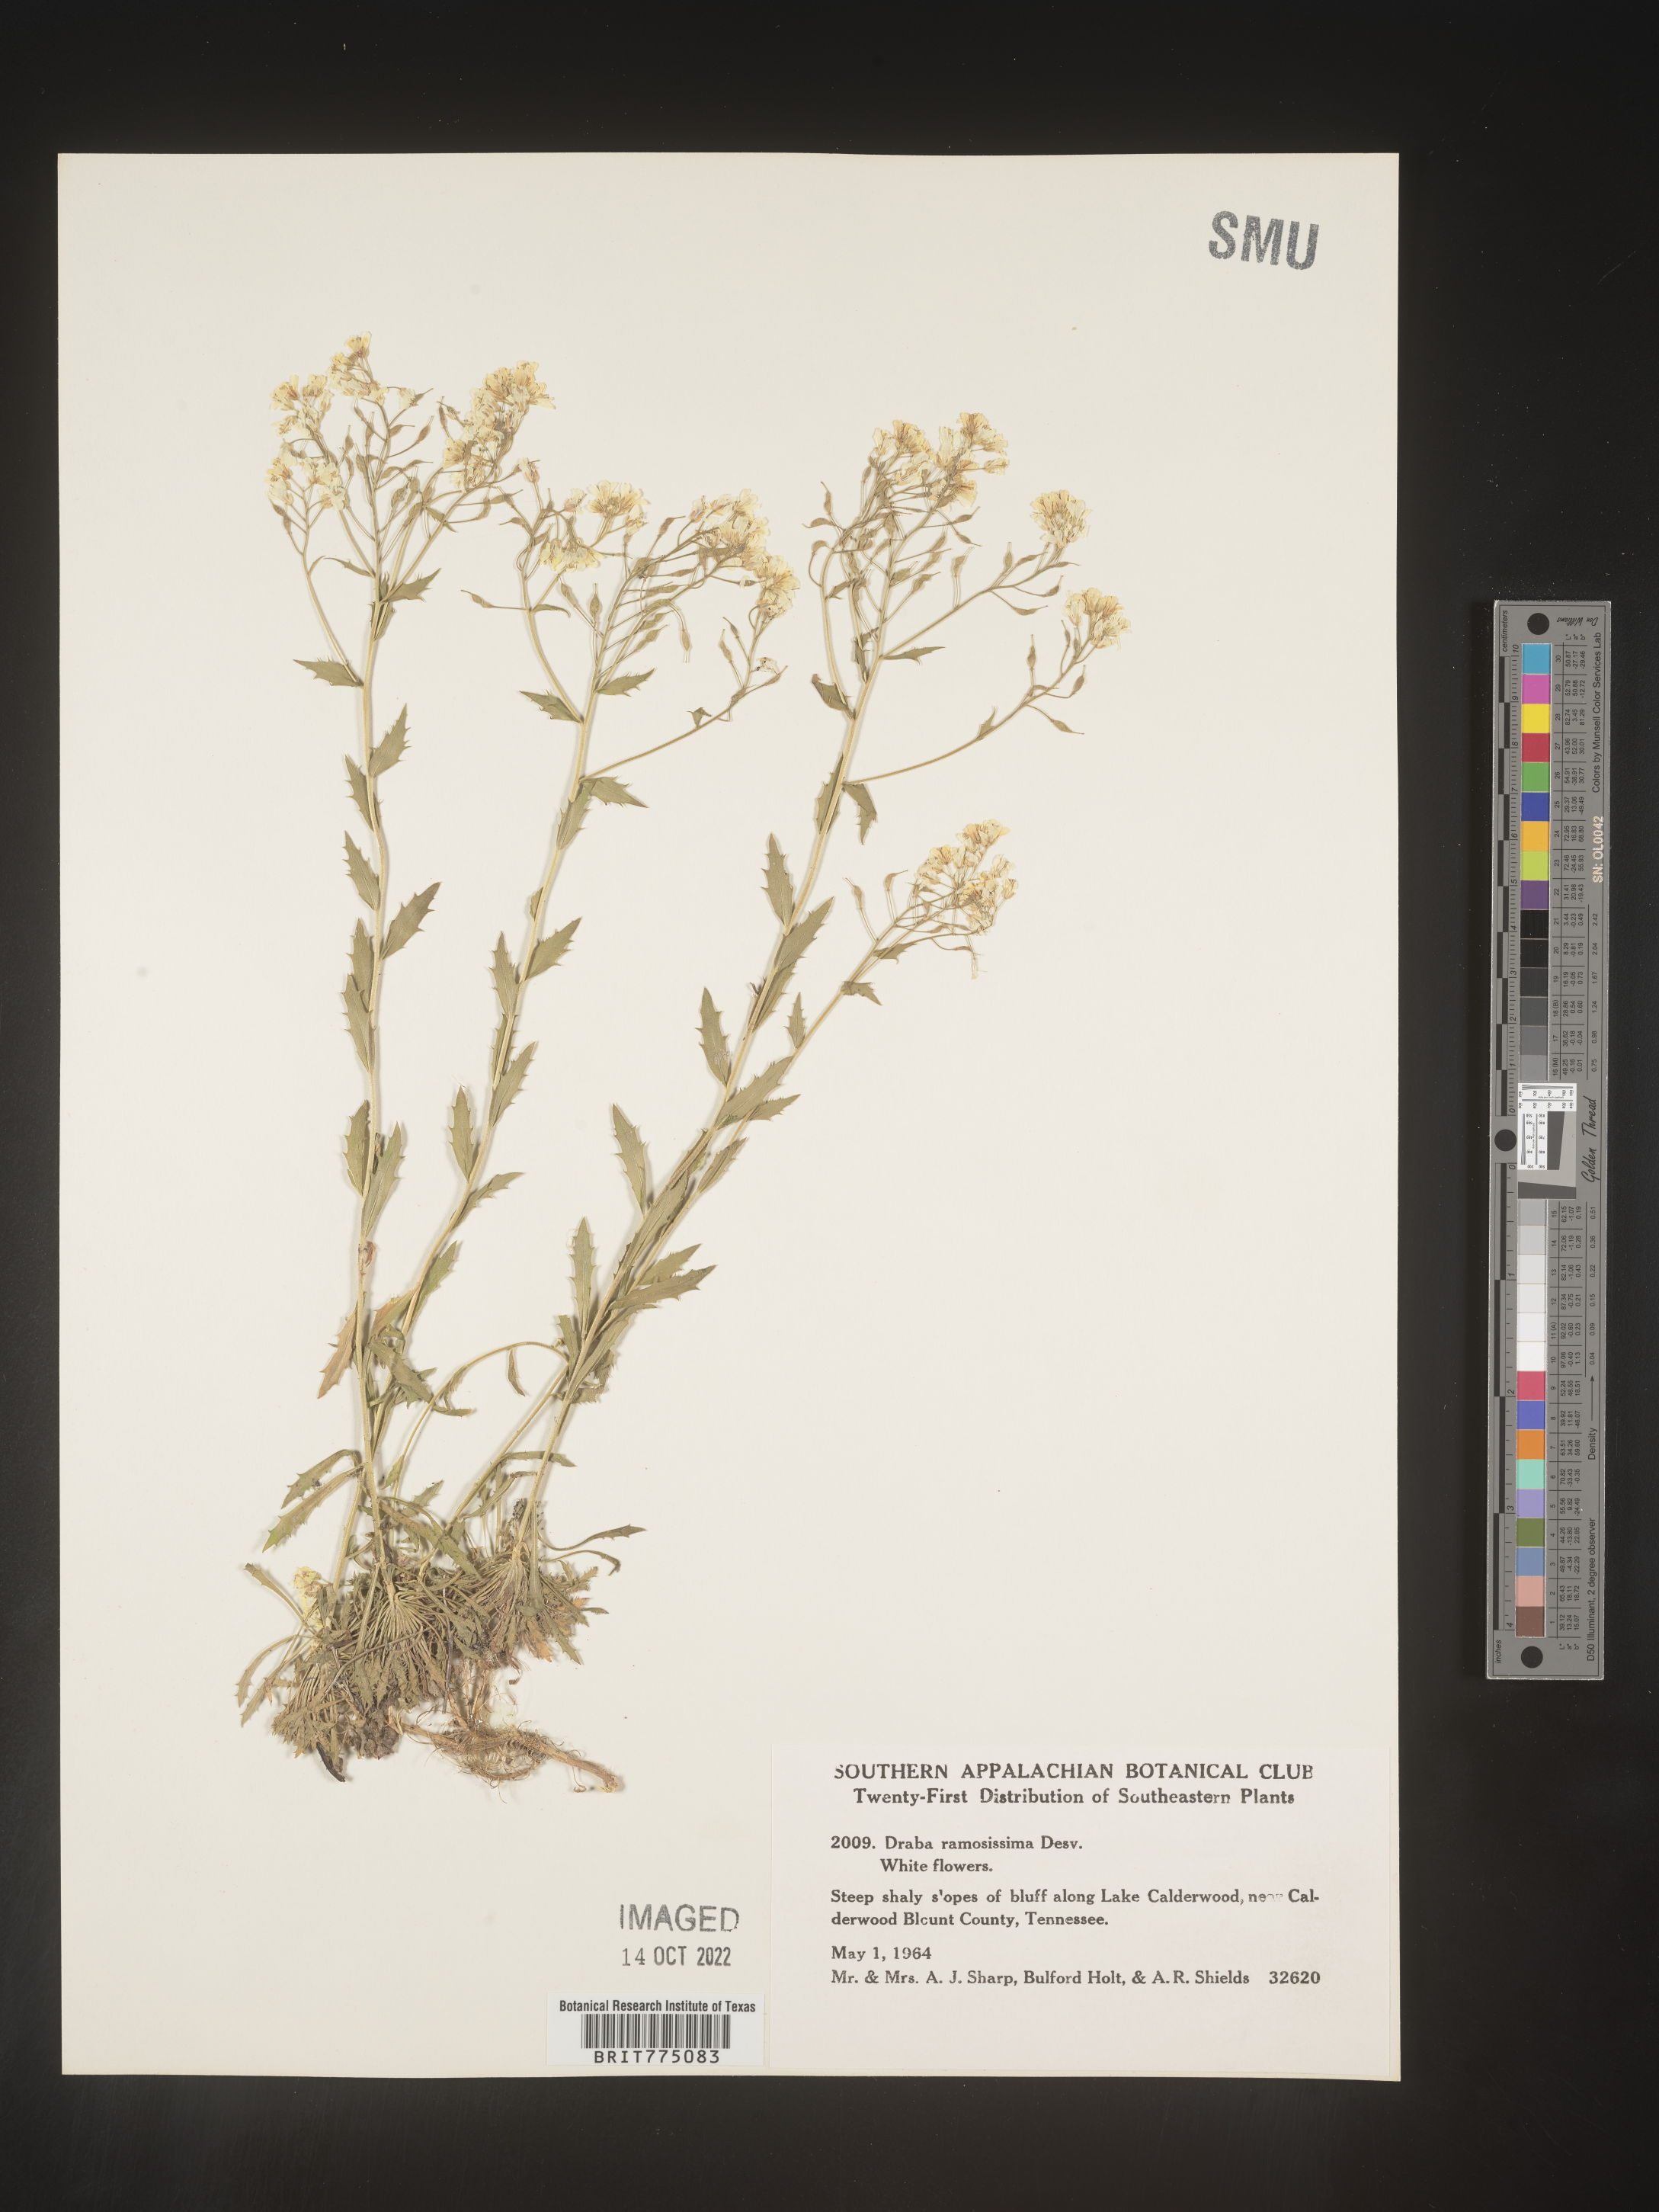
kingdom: Plantae
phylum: Tracheophyta
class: Magnoliopsida
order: Brassicales
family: Brassicaceae
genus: Draba
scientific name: Draba
